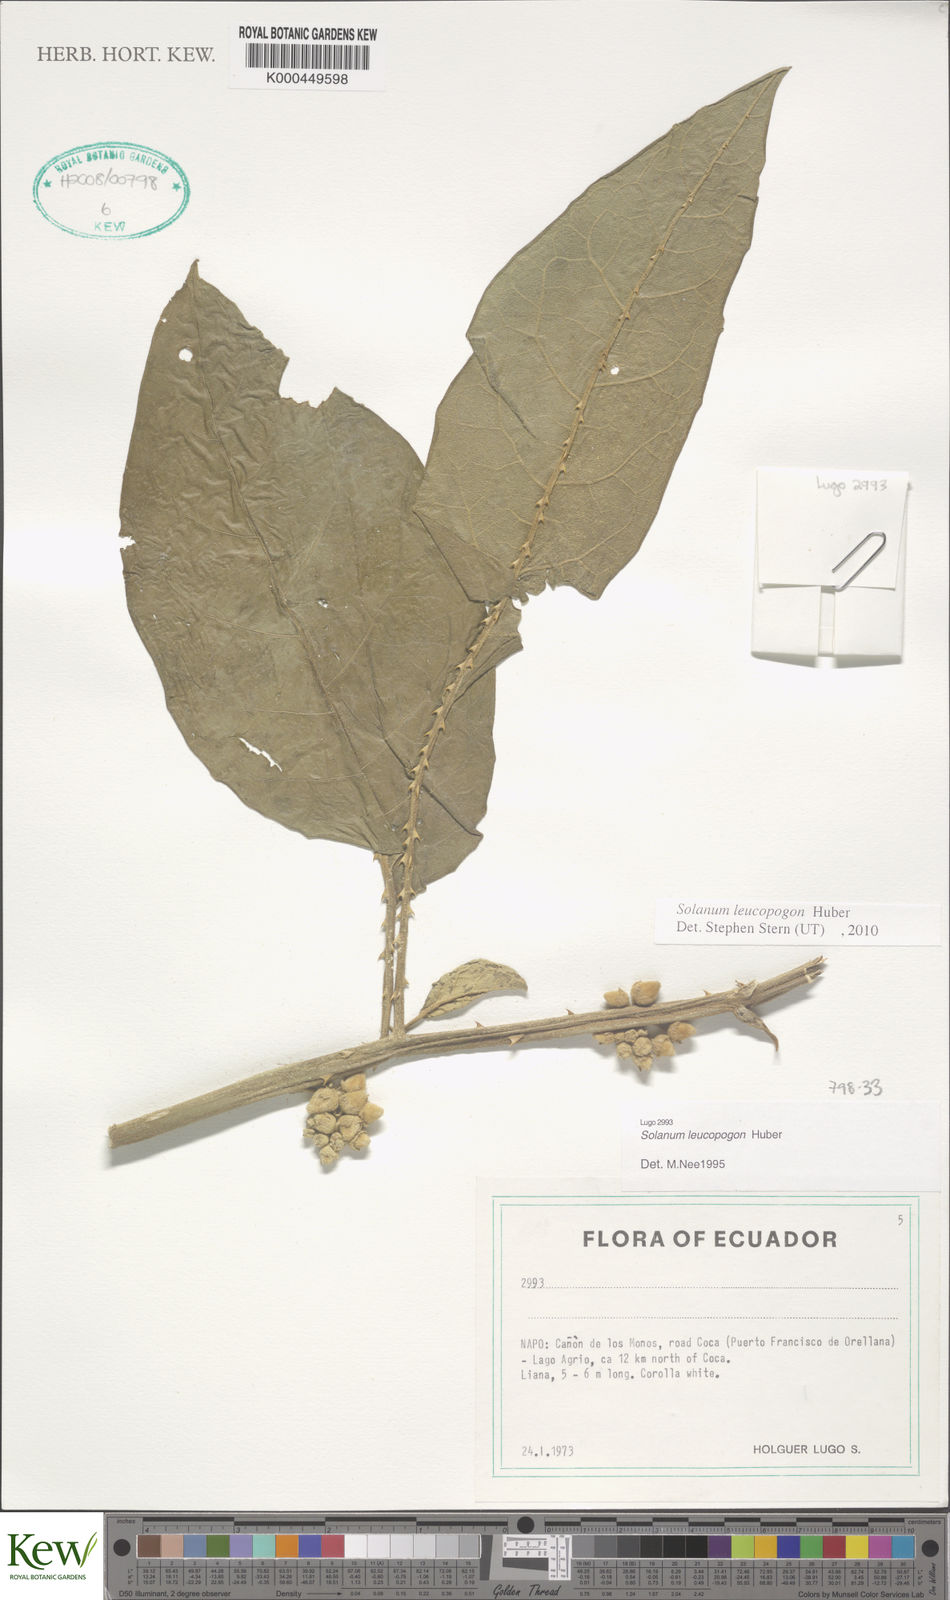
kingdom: Plantae
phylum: Tracheophyta
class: Magnoliopsida
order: Solanales
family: Solanaceae
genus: Solanum
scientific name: Solanum leucopogon
